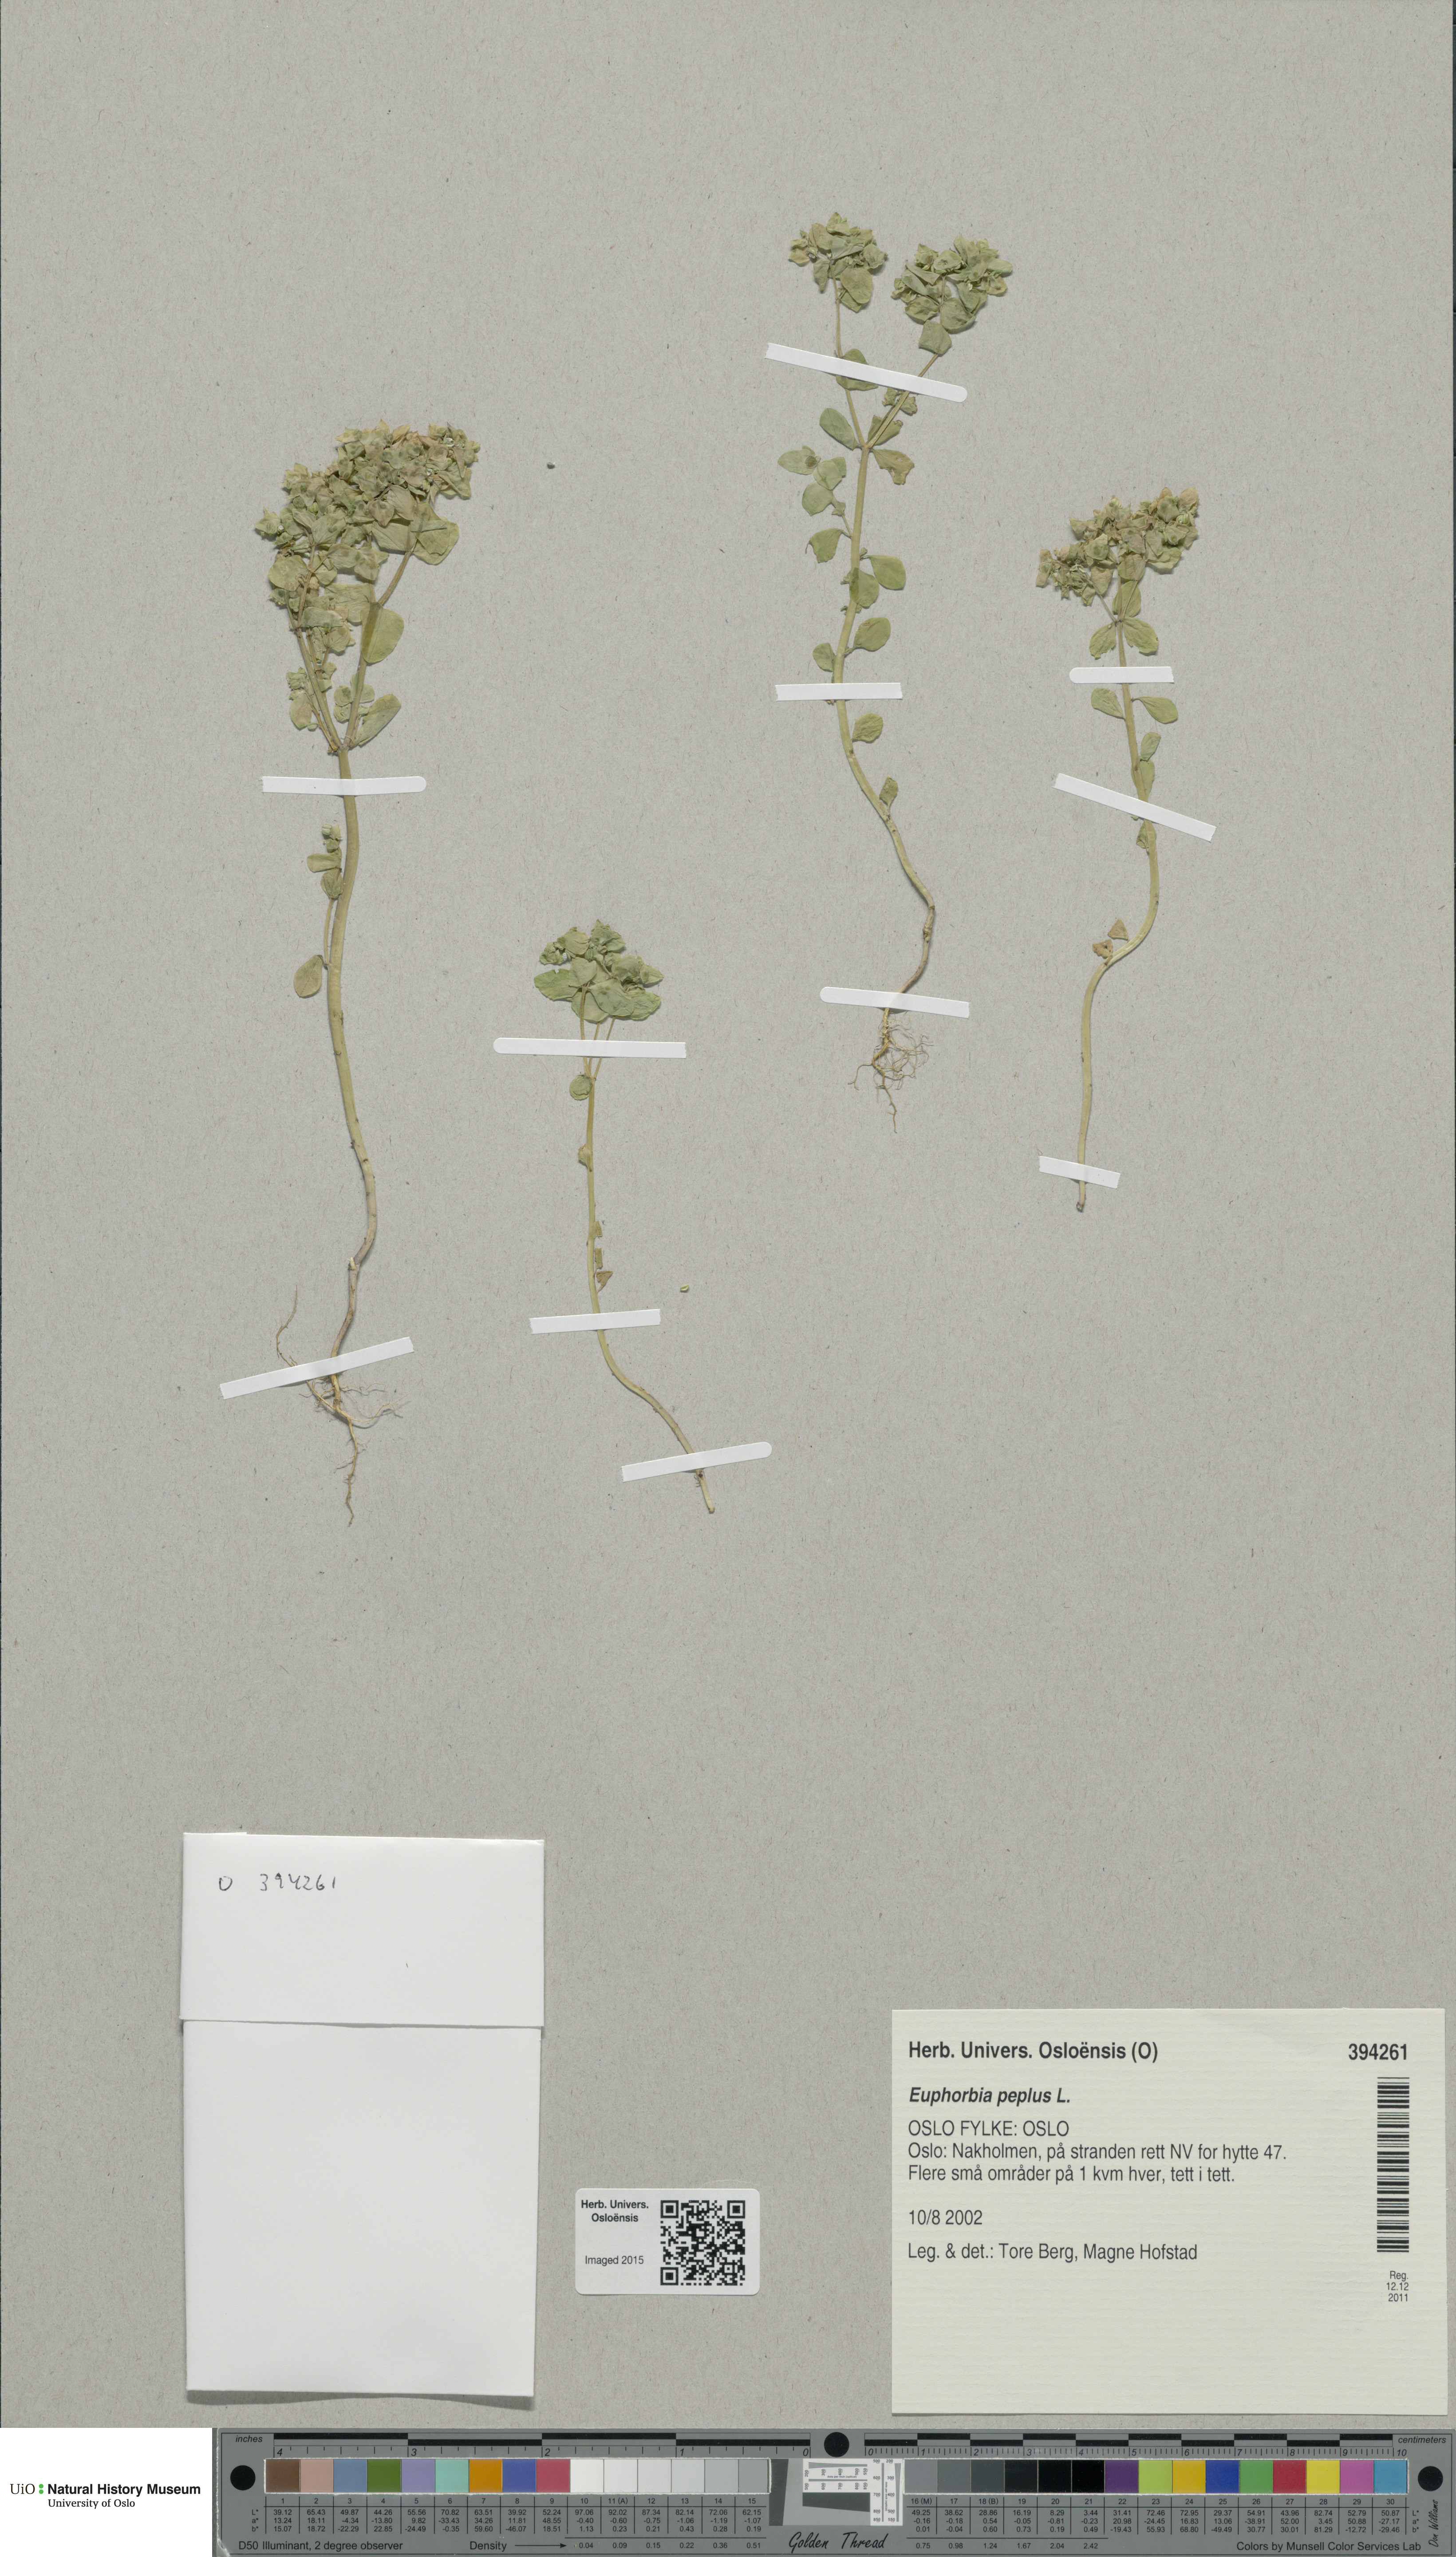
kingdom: Plantae
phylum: Tracheophyta
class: Magnoliopsida
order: Malpighiales
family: Euphorbiaceae
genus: Euphorbia
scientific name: Euphorbia peplus
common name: Petty spurge
